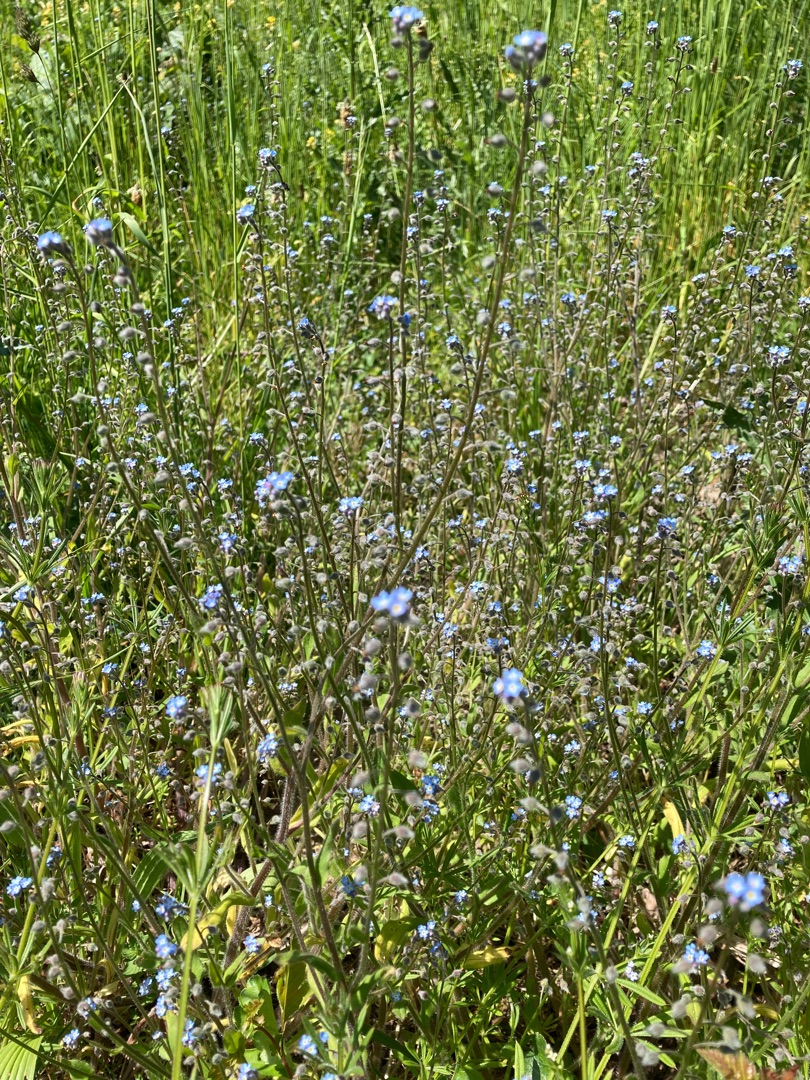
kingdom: Plantae
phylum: Tracheophyta
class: Magnoliopsida
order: Boraginales
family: Boraginaceae
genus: Myosotis
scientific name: Myosotis arvensis
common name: Mark-forglemmigej
